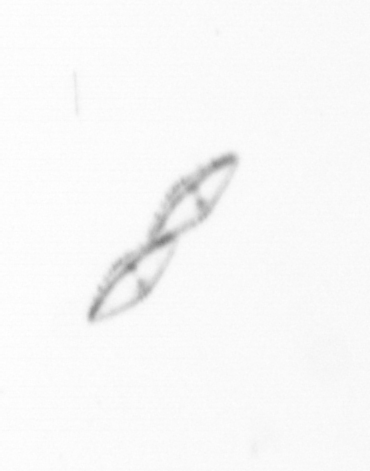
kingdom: Chromista
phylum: Ochrophyta
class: Bacillariophyceae
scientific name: Bacillariophyceae
